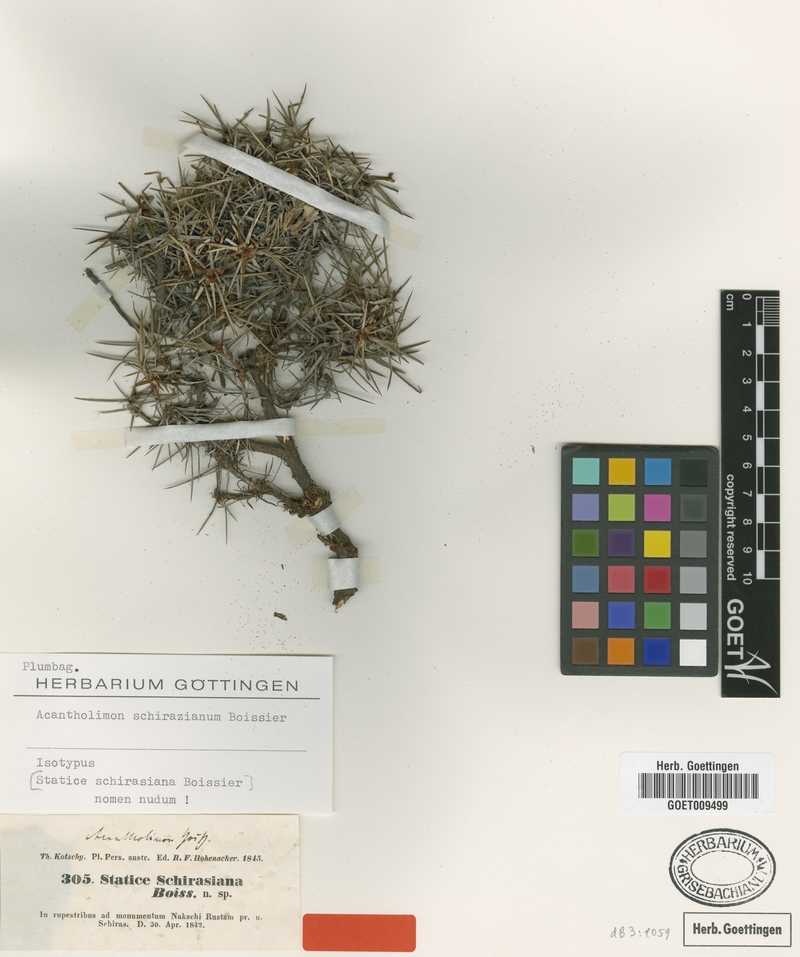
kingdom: Plantae
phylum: Tracheophyta
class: Magnoliopsida
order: Caryophyllales
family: Plumbaginaceae
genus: Acantholimon
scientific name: Acantholimon schirazianum
